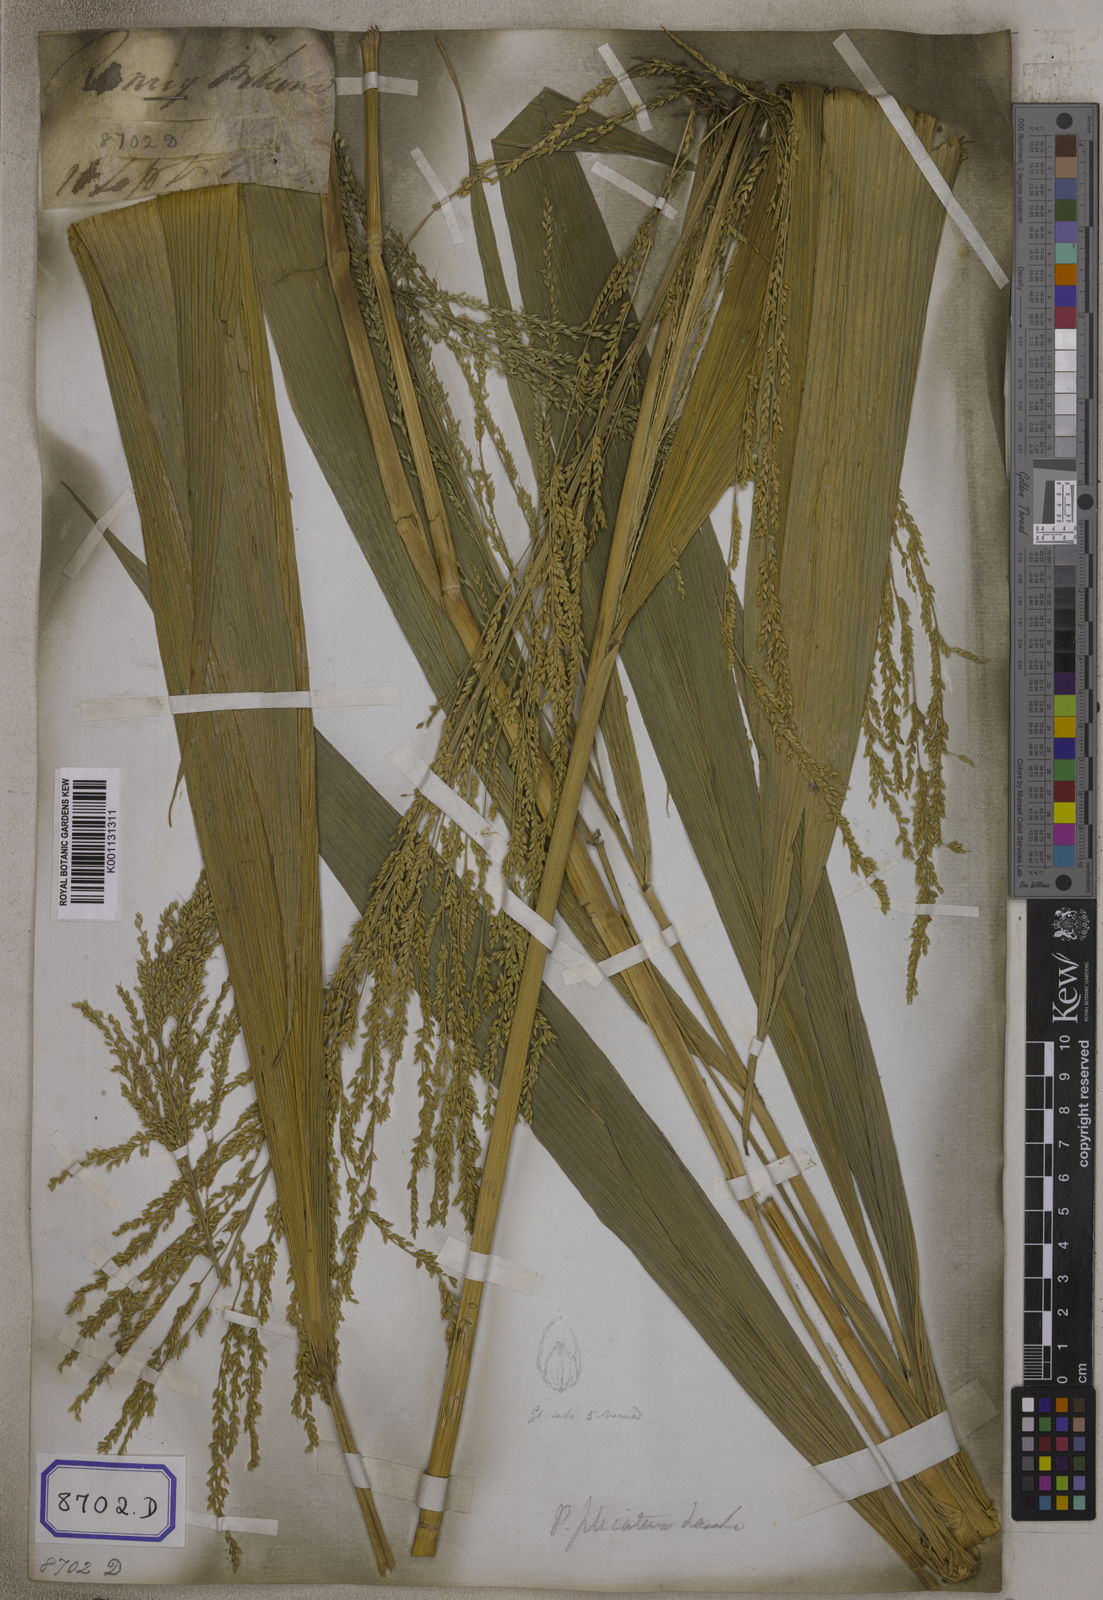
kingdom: Plantae
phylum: Tracheophyta
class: Liliopsida
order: Poales
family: Poaceae
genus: Setaria
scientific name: Setaria palmifolia
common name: Broadleaved bristlegrass
